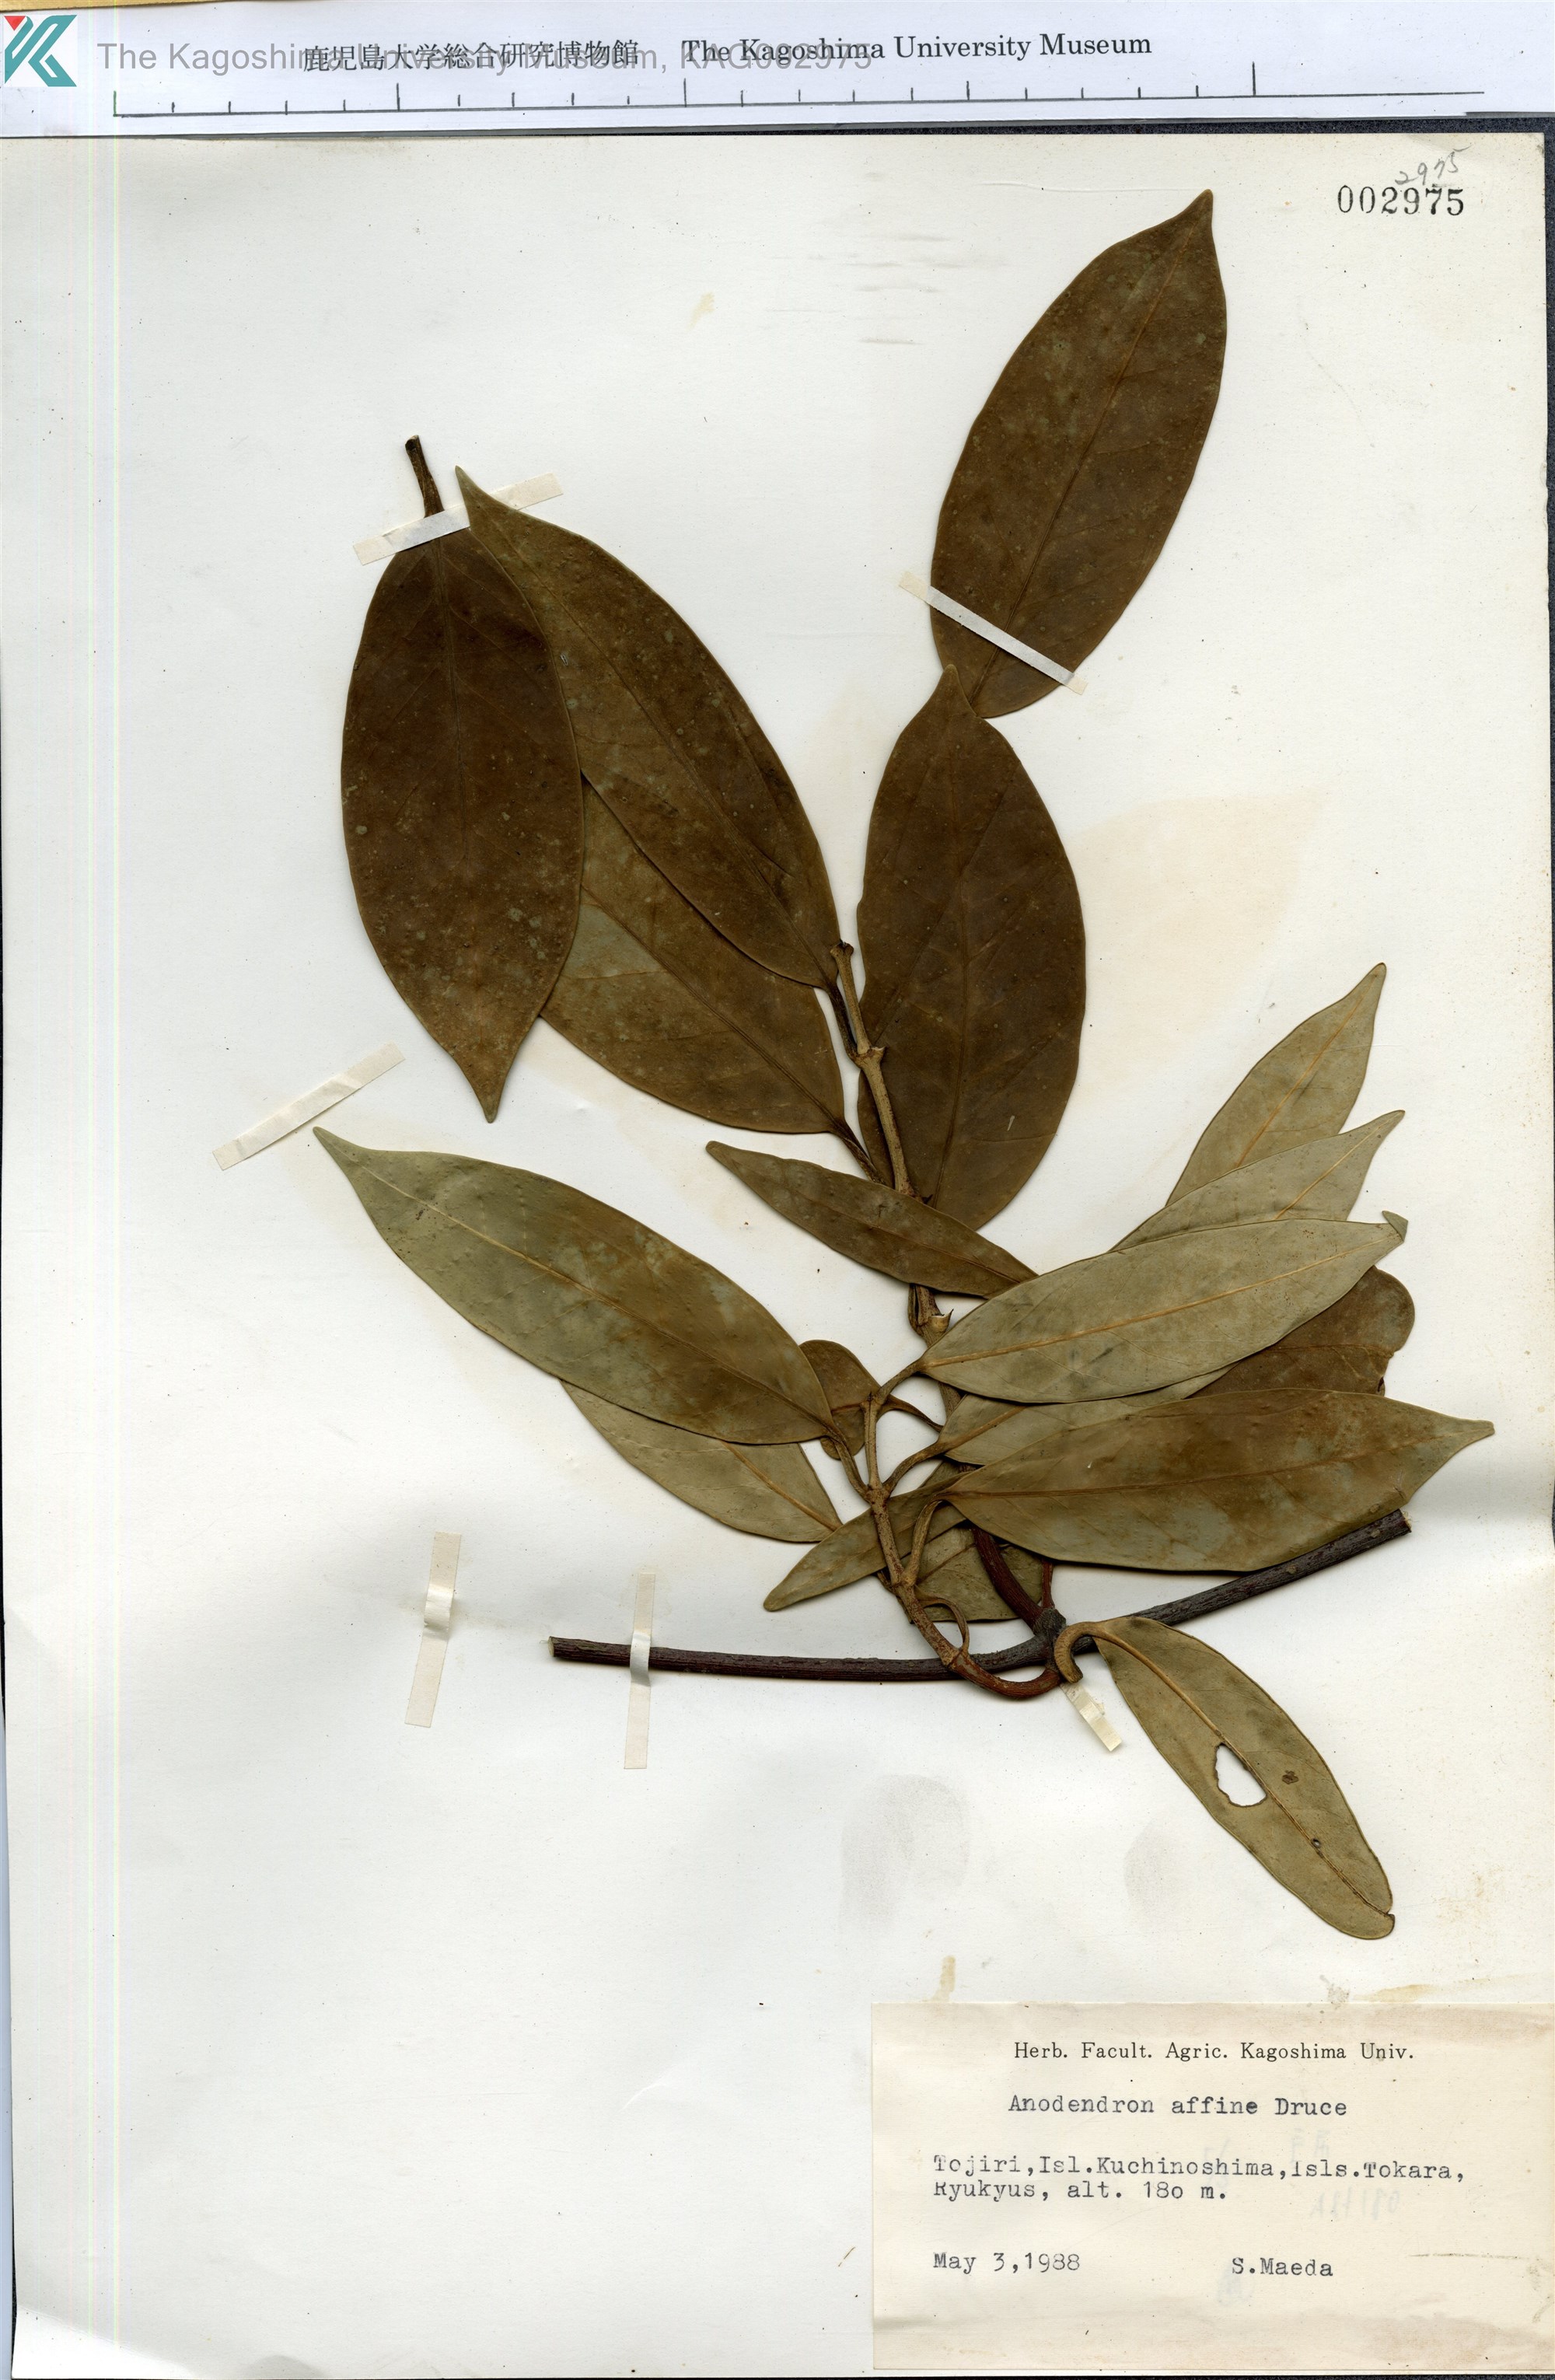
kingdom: Plantae
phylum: Tracheophyta
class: Magnoliopsida
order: Gentianales
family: Apocynaceae
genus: Anodendron
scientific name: Anodendron affine
